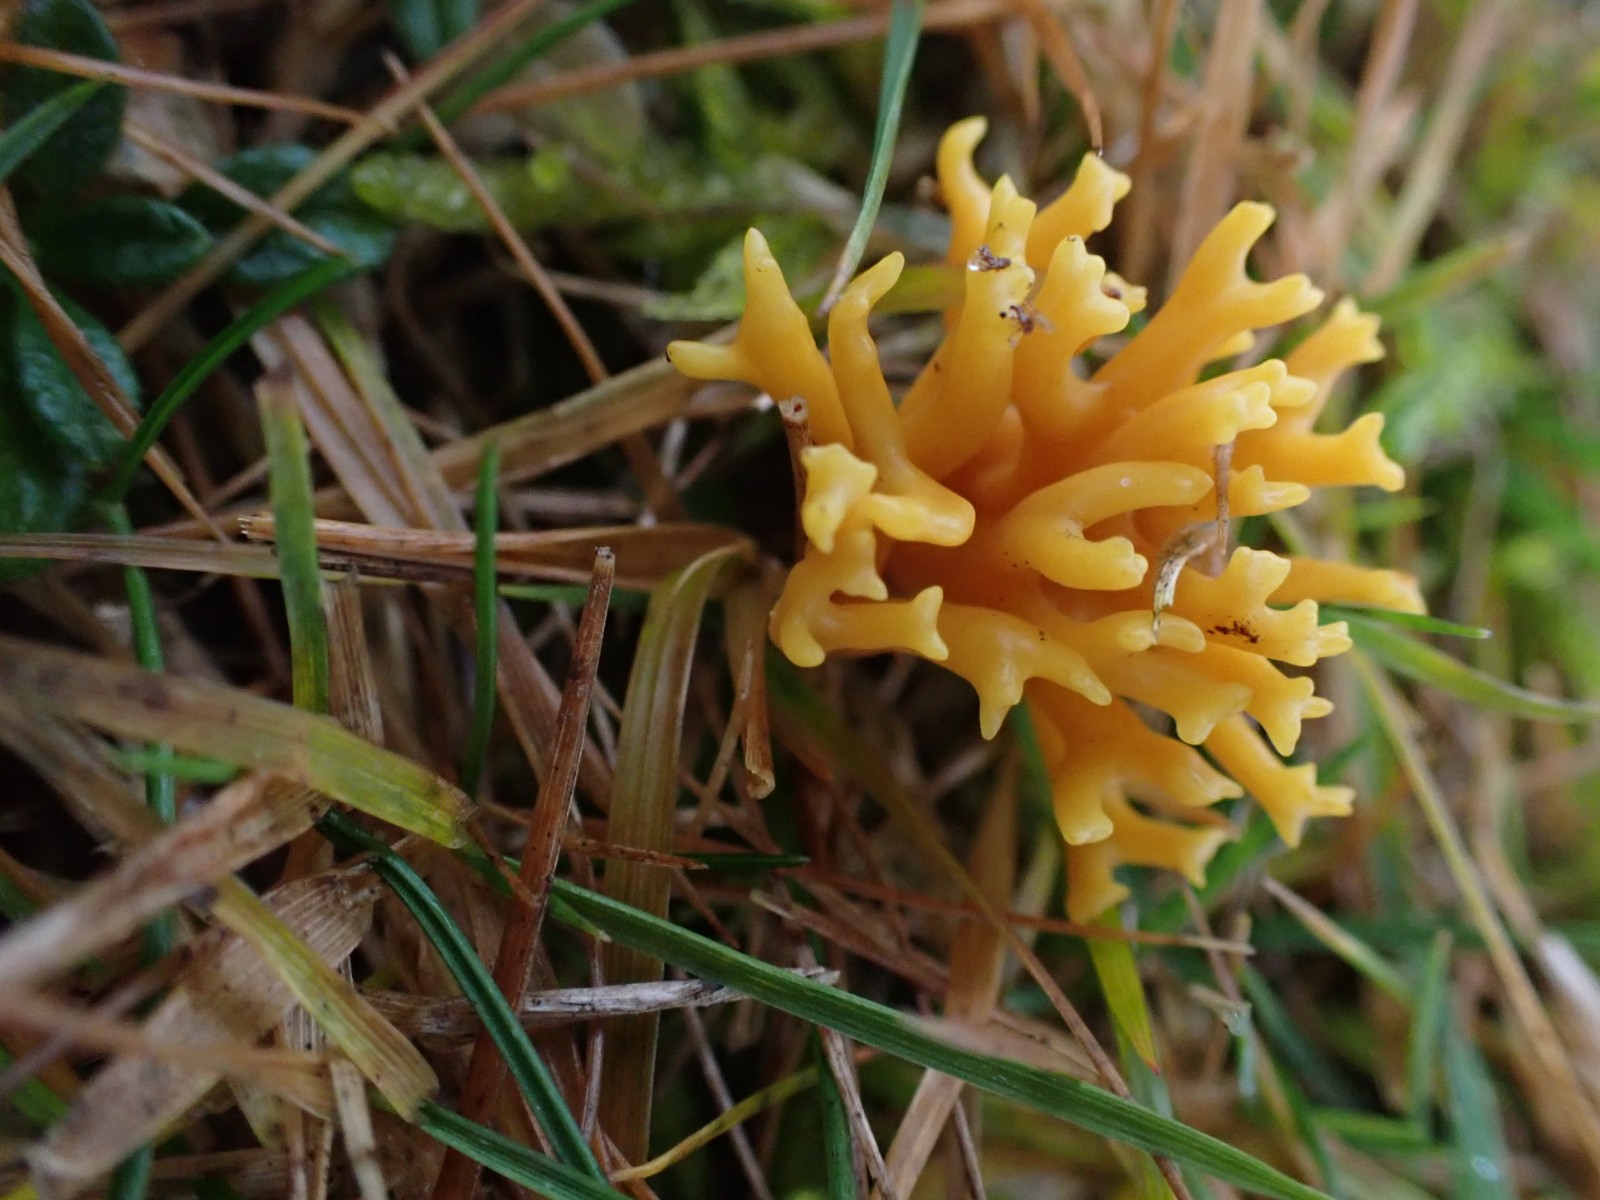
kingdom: Fungi
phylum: Basidiomycota
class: Agaricomycetes
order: Agaricales
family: Clavariaceae
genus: Clavulinopsis
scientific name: Clavulinopsis corniculata
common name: eng-køllesvamp
